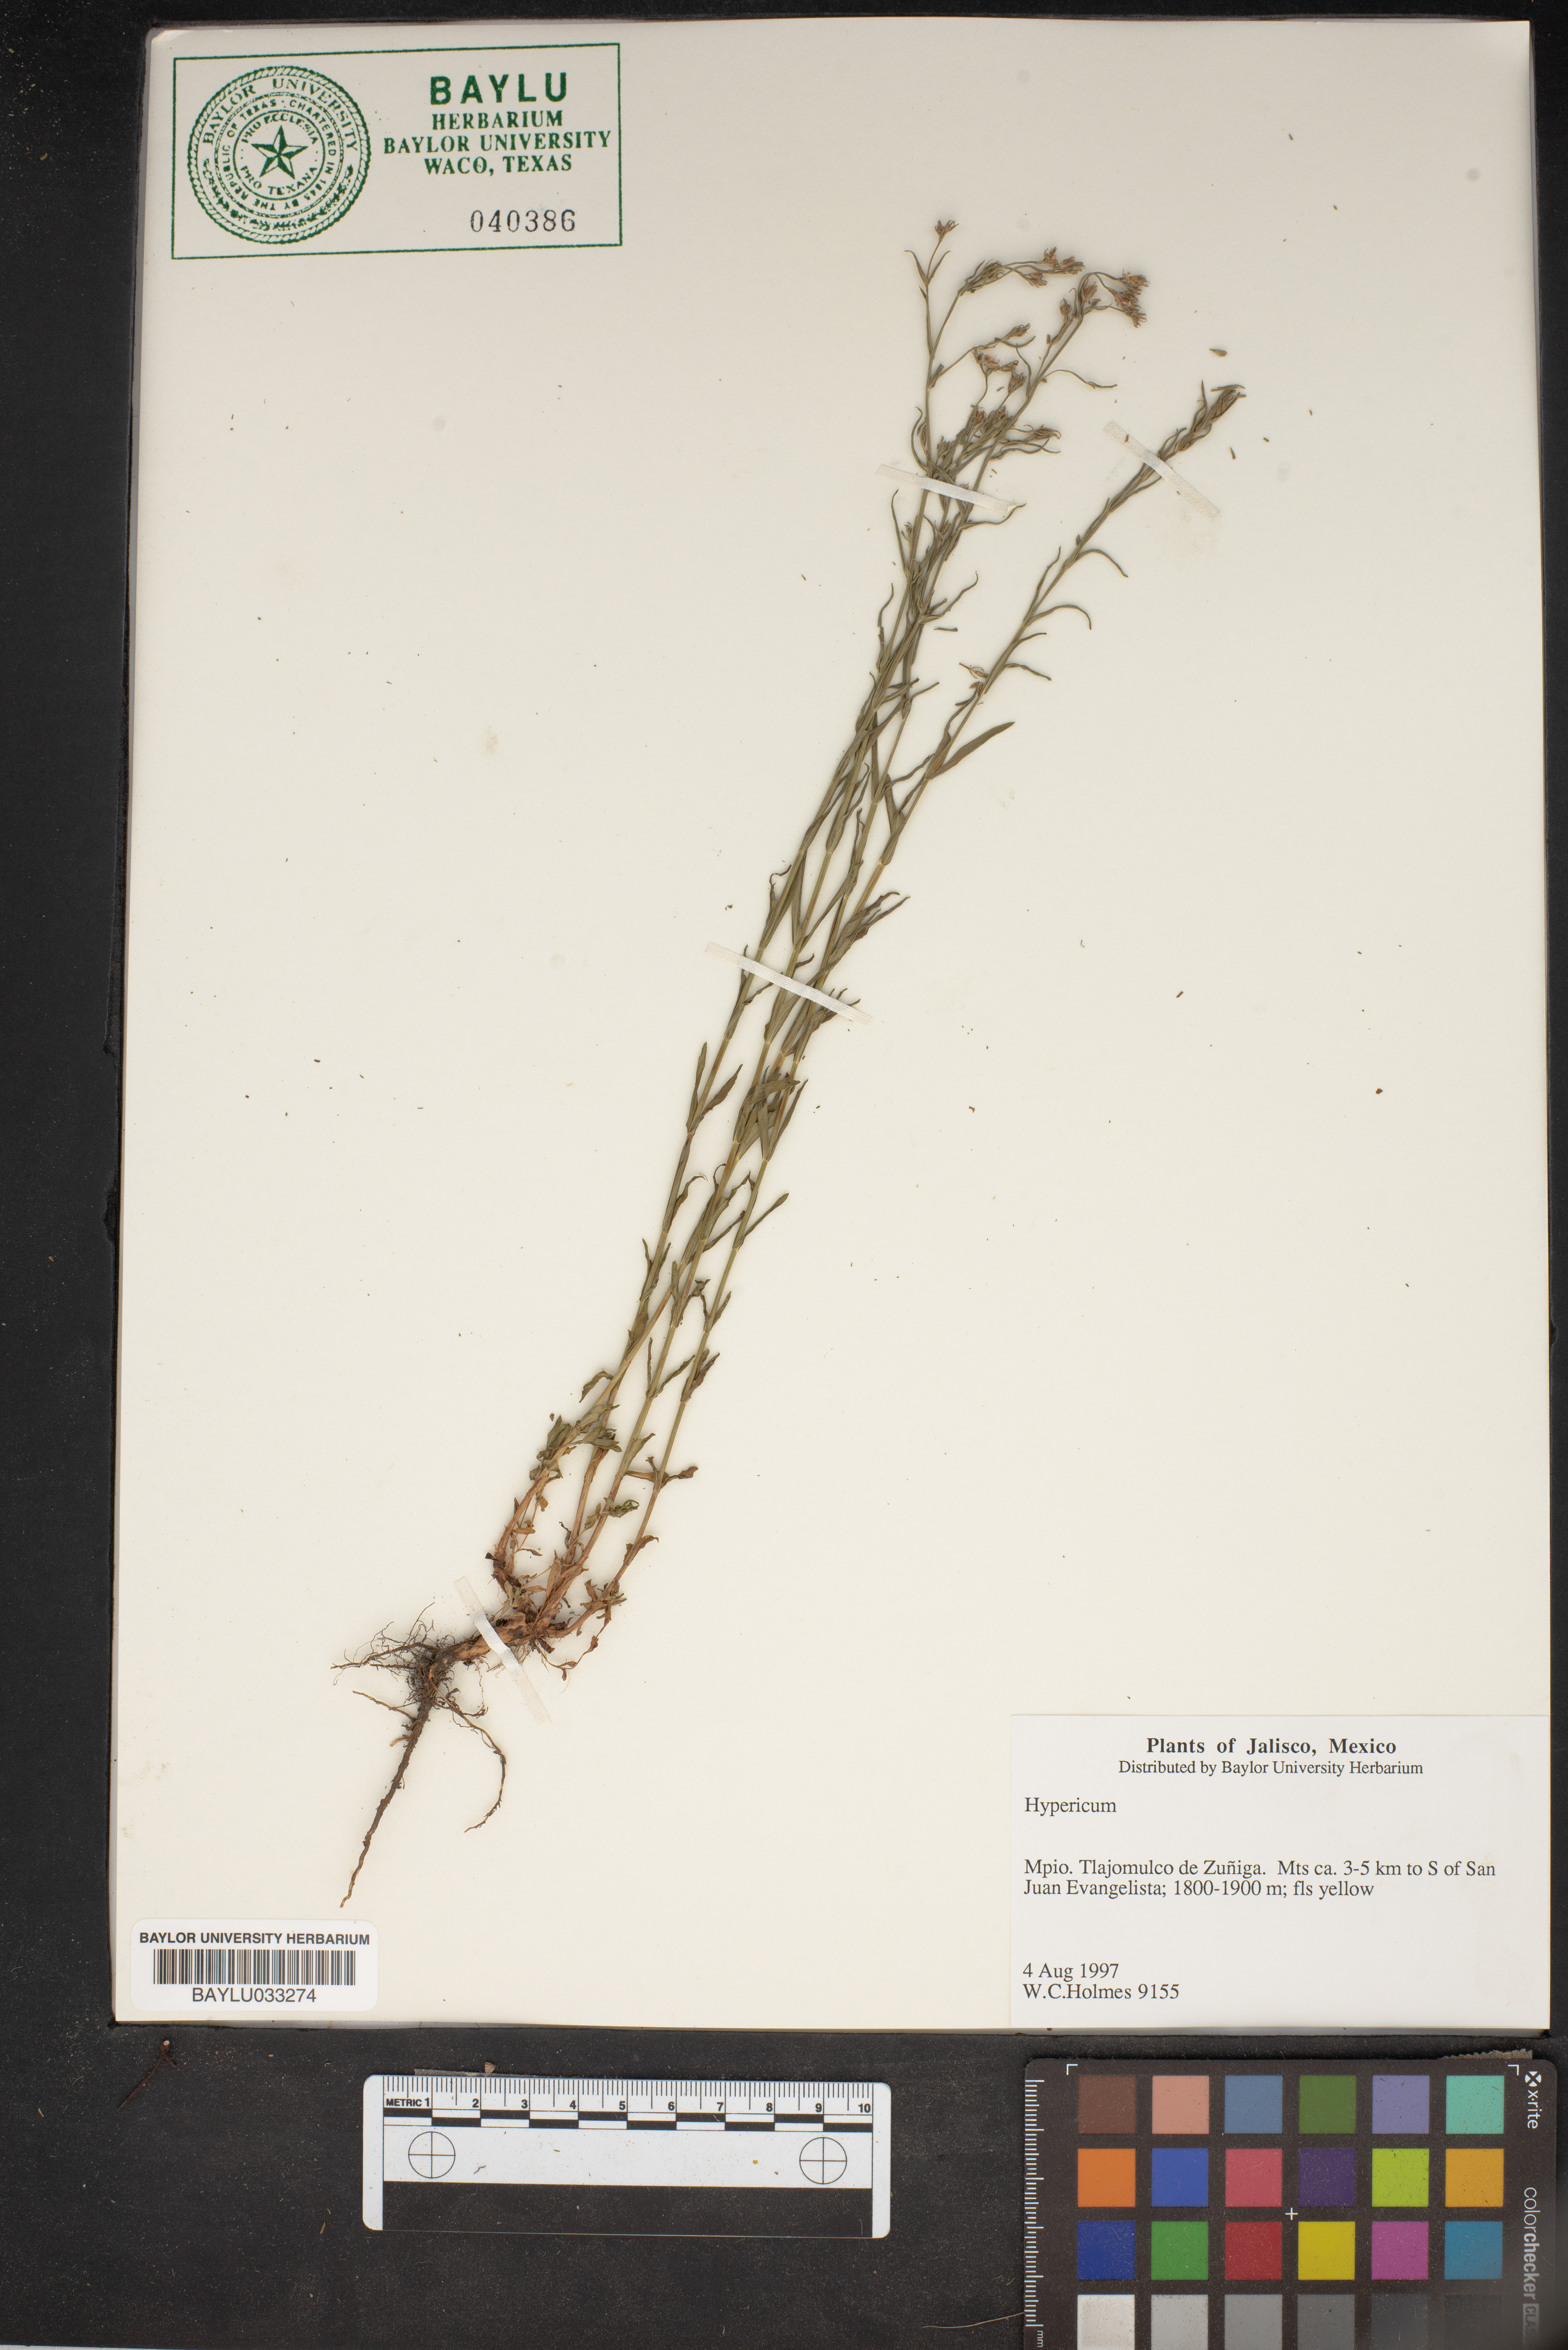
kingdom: Plantae
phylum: Tracheophyta
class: Magnoliopsida
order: Malpighiales
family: Hypericaceae
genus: Hypericum
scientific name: Hypericum
